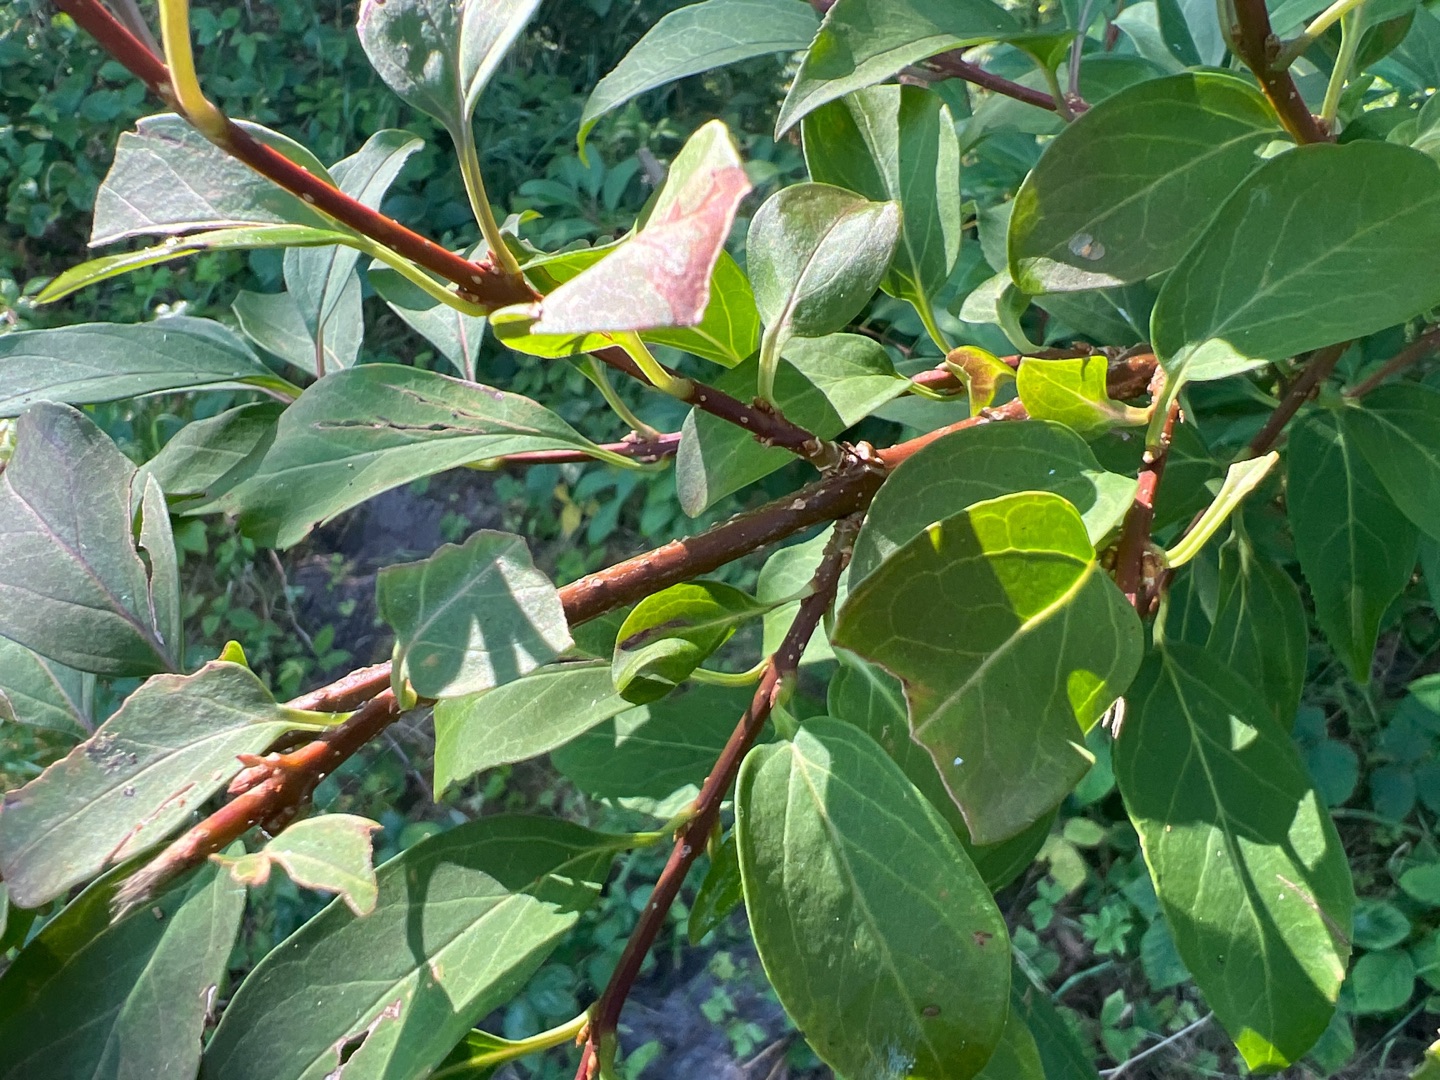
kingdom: Plantae
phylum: Tracheophyta
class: Magnoliopsida
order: Lamiales
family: Oleaceae
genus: Forsythia
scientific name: Forsythia intermedia
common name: Have-forsythia
